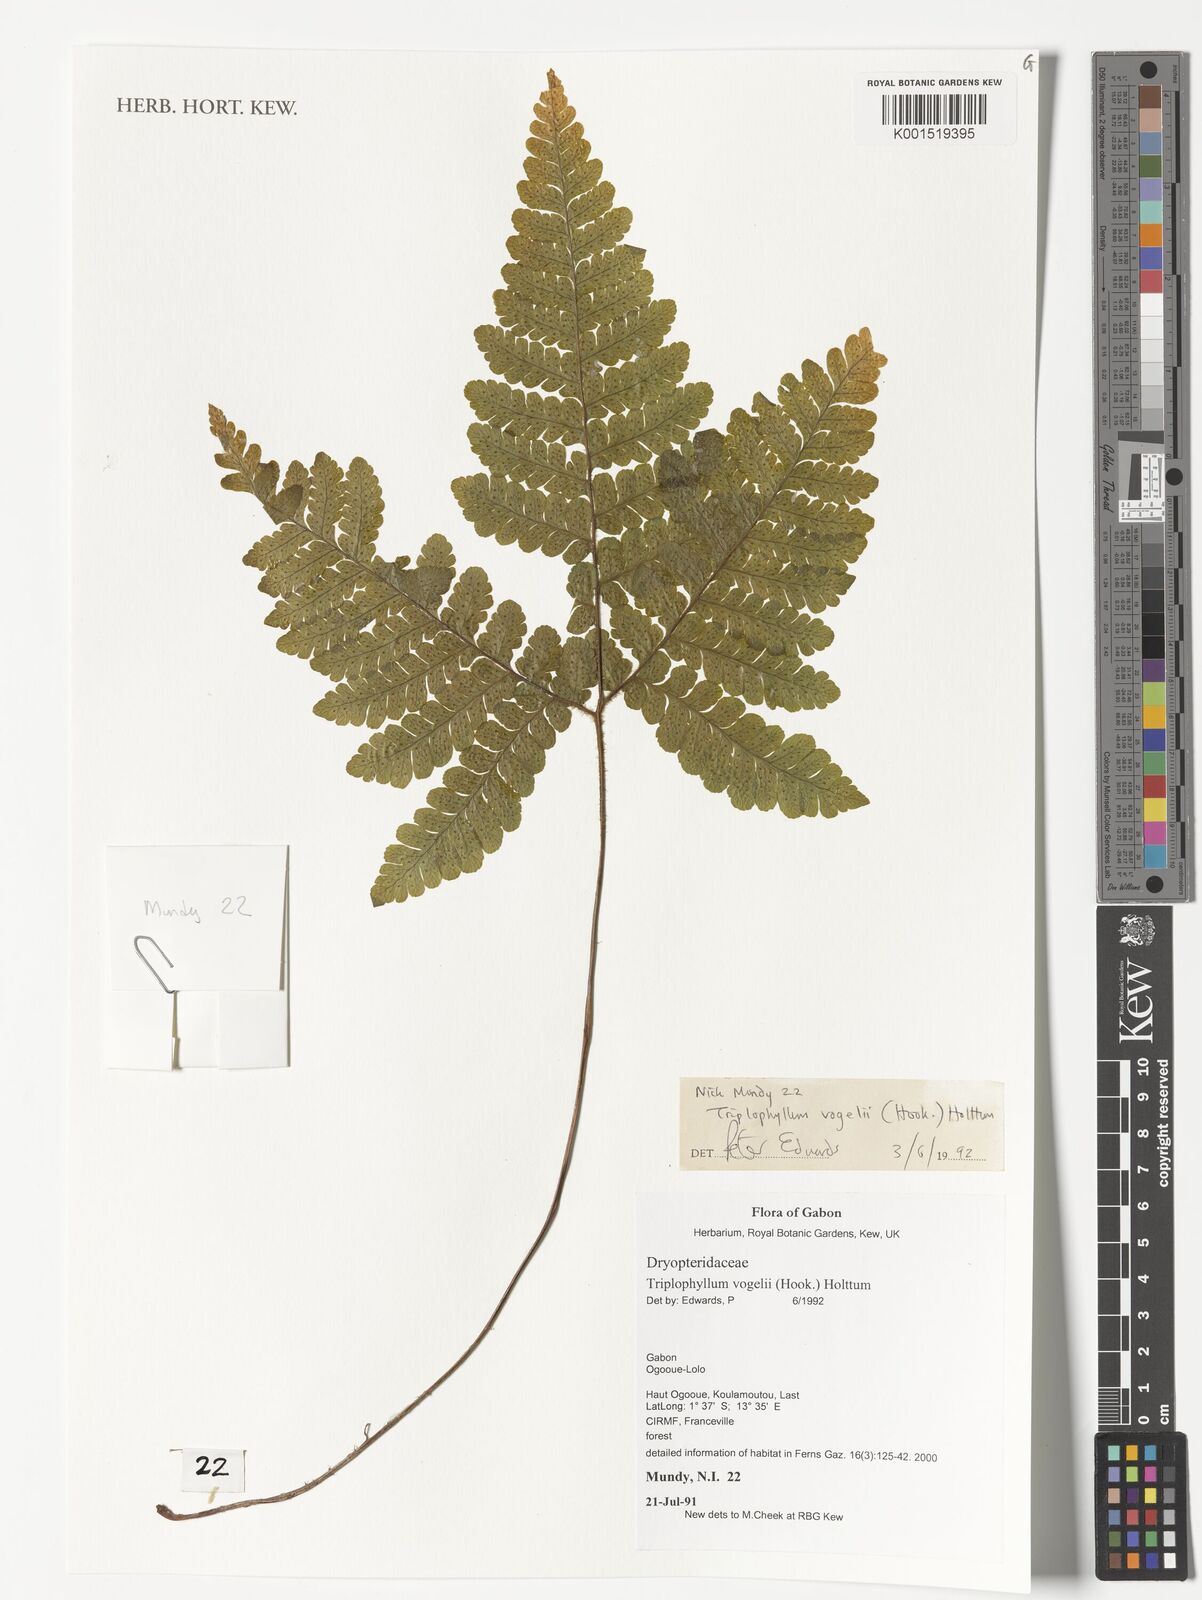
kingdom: Plantae
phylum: Tracheophyta
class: Polypodiopsida
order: Polypodiales
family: Tectariaceae
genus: Triplophyllum
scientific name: Triplophyllum vogelii
